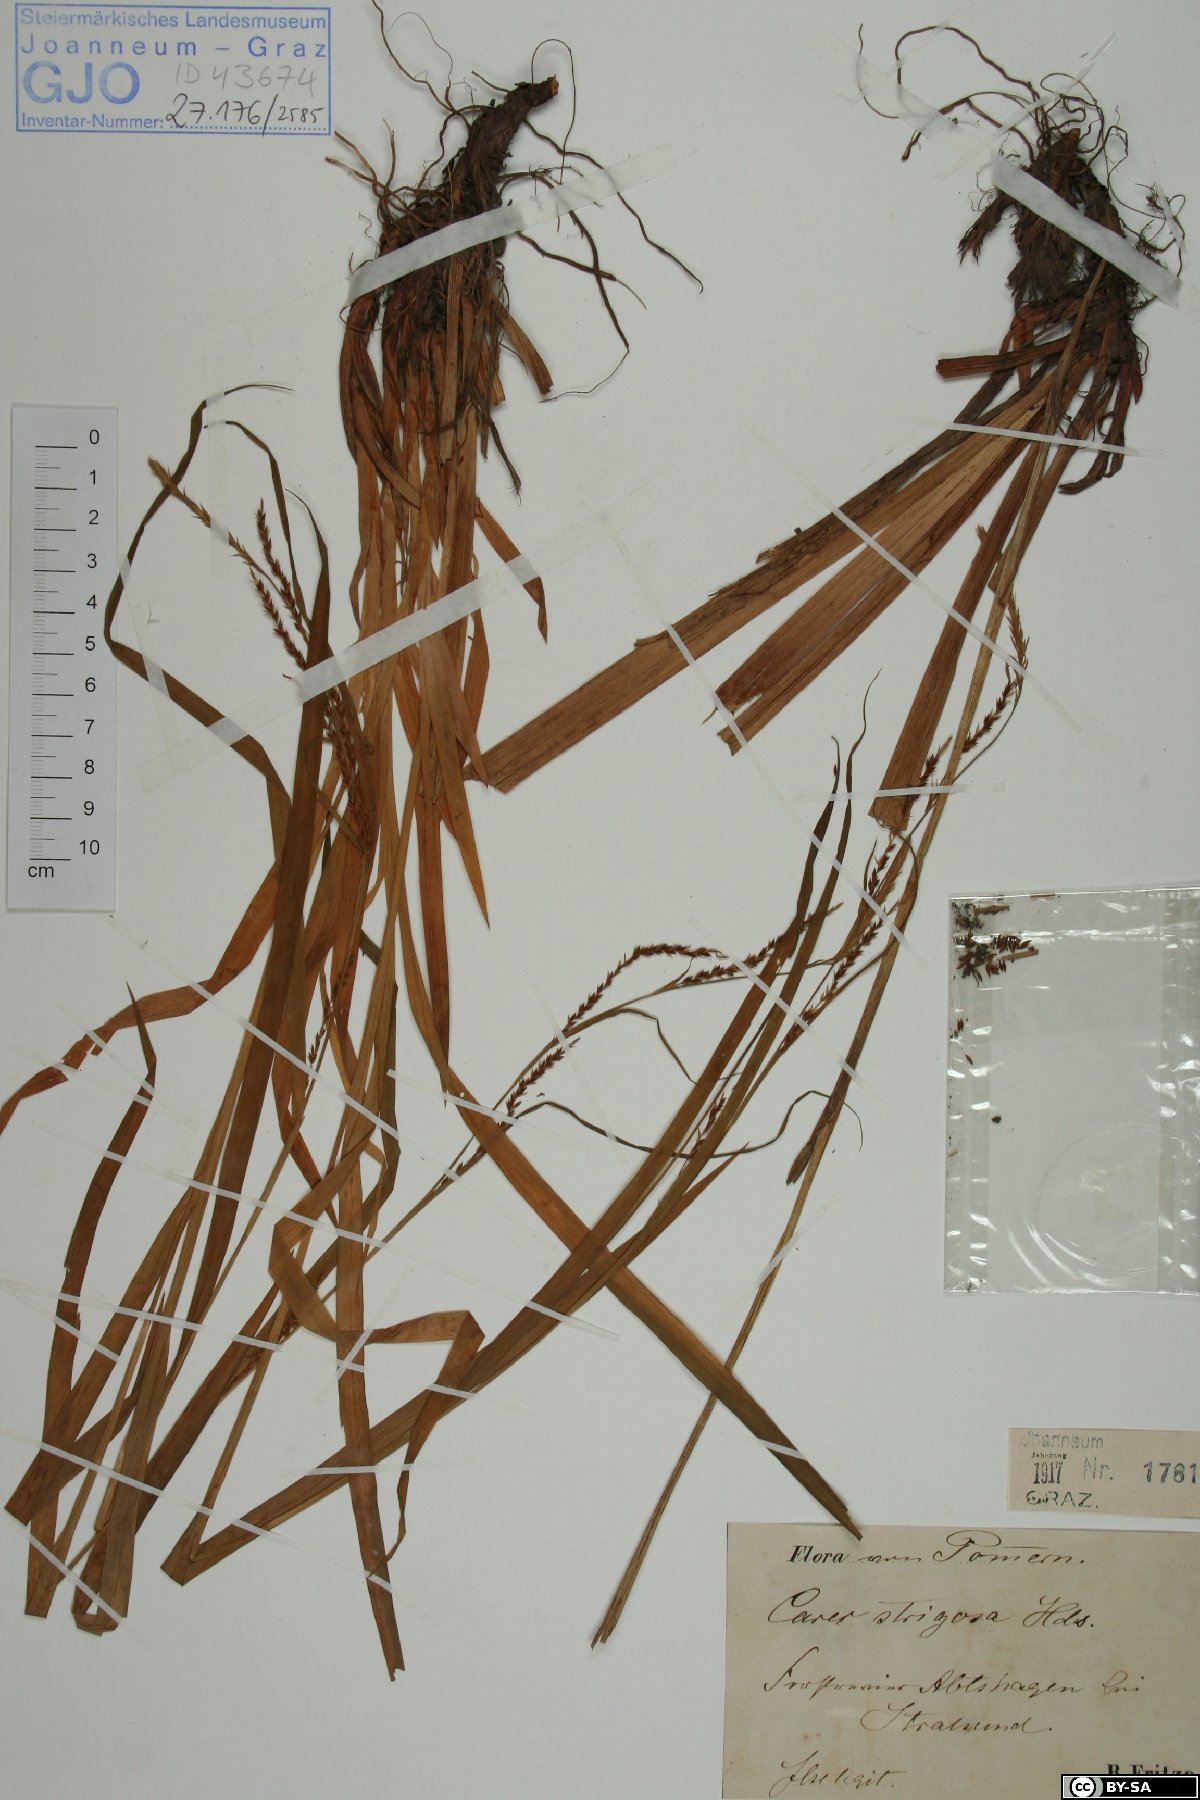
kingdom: Plantae
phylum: Tracheophyta
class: Liliopsida
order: Poales
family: Cyperaceae
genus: Carex
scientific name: Carex strigosa
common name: Thin-spiked wood-sedge
